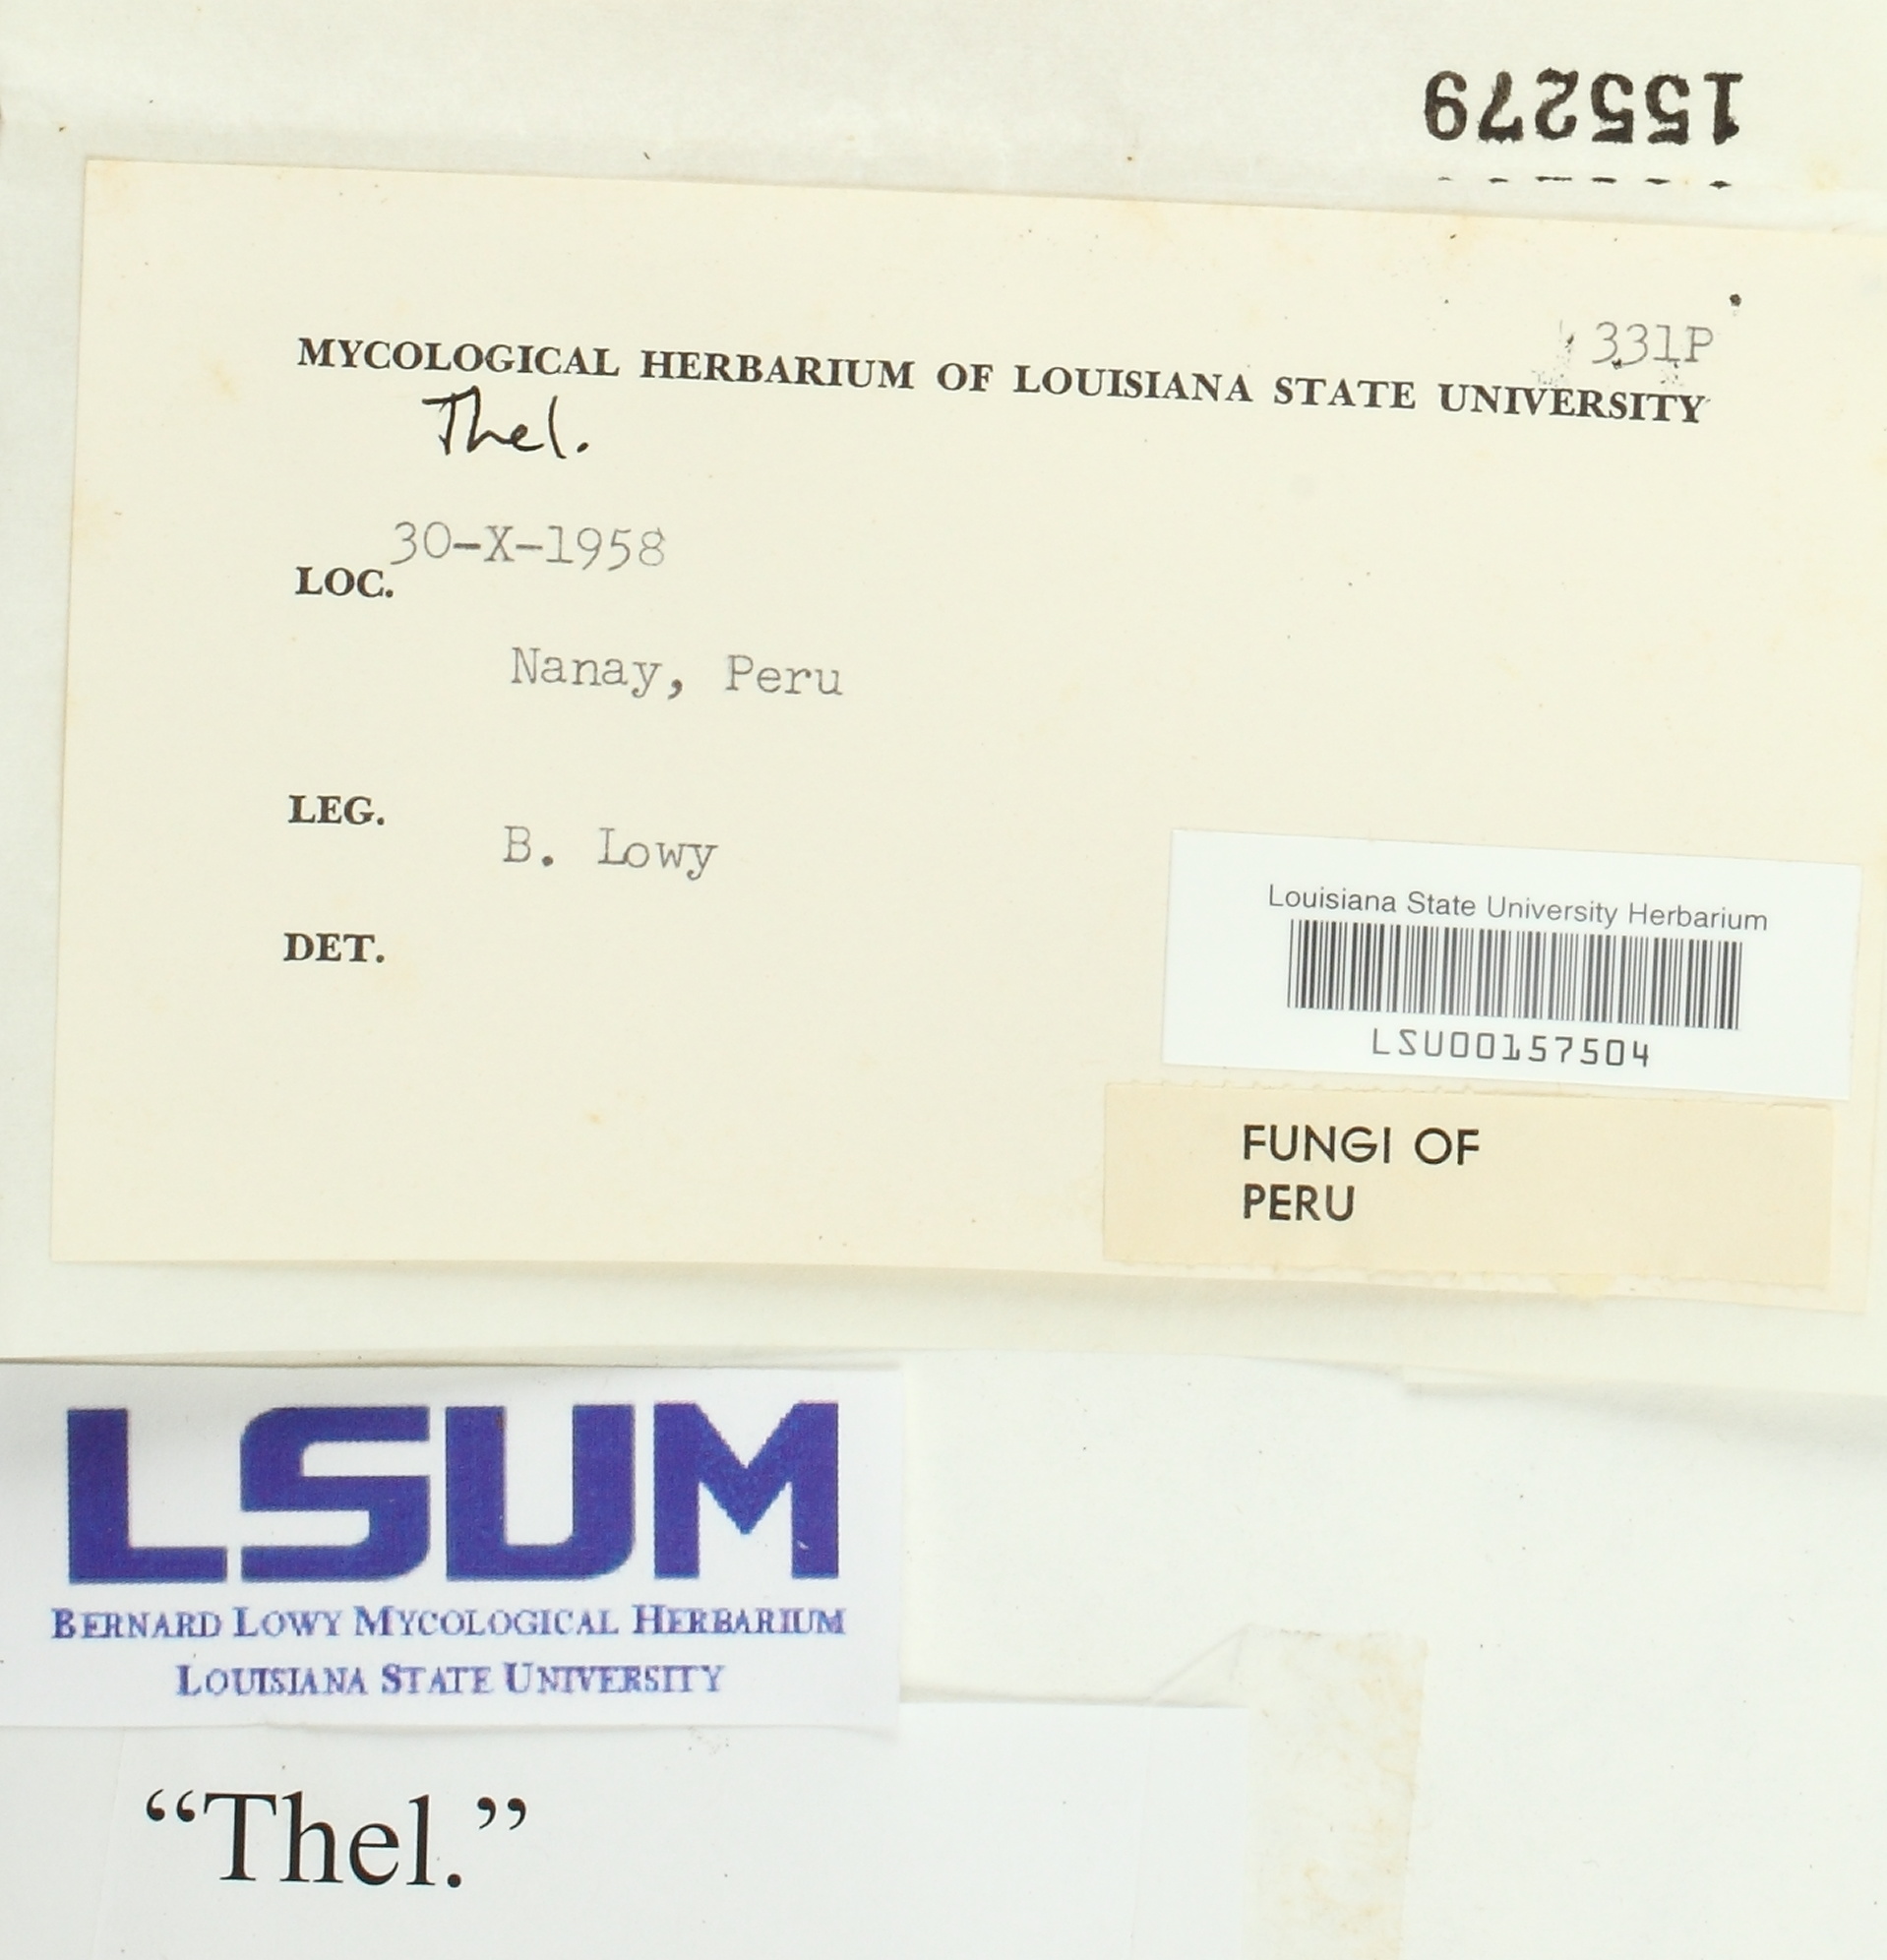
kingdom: Fungi
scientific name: Fungi
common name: Fungi
